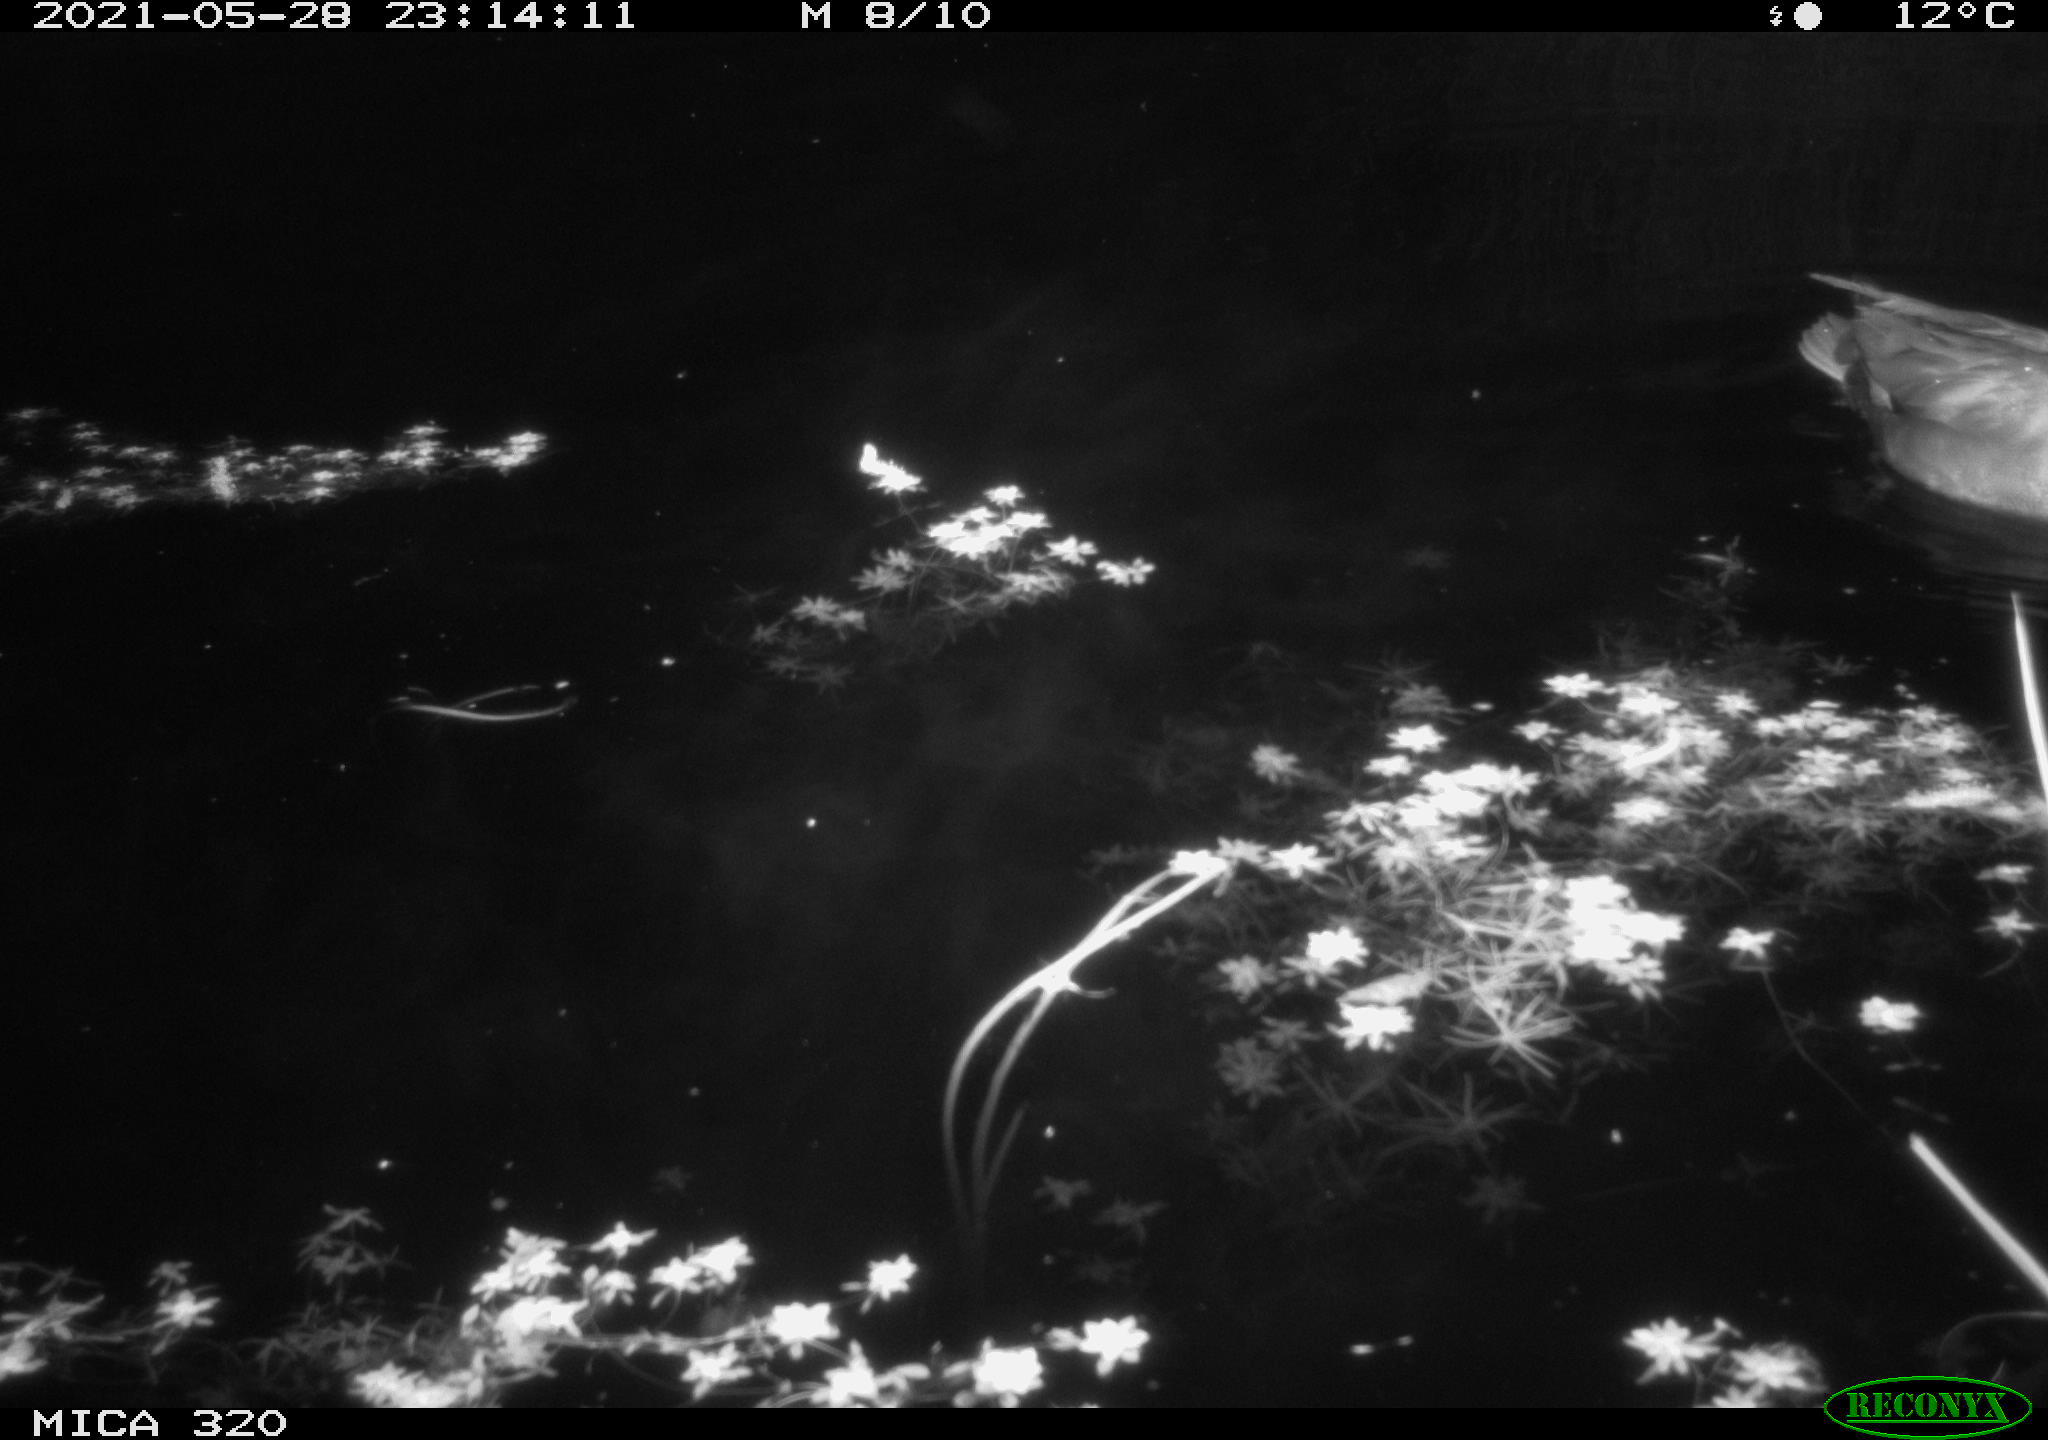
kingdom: Animalia
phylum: Chordata
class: Aves
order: Anseriformes
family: Anatidae
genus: Mareca
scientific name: Mareca strepera
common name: Gadwall
